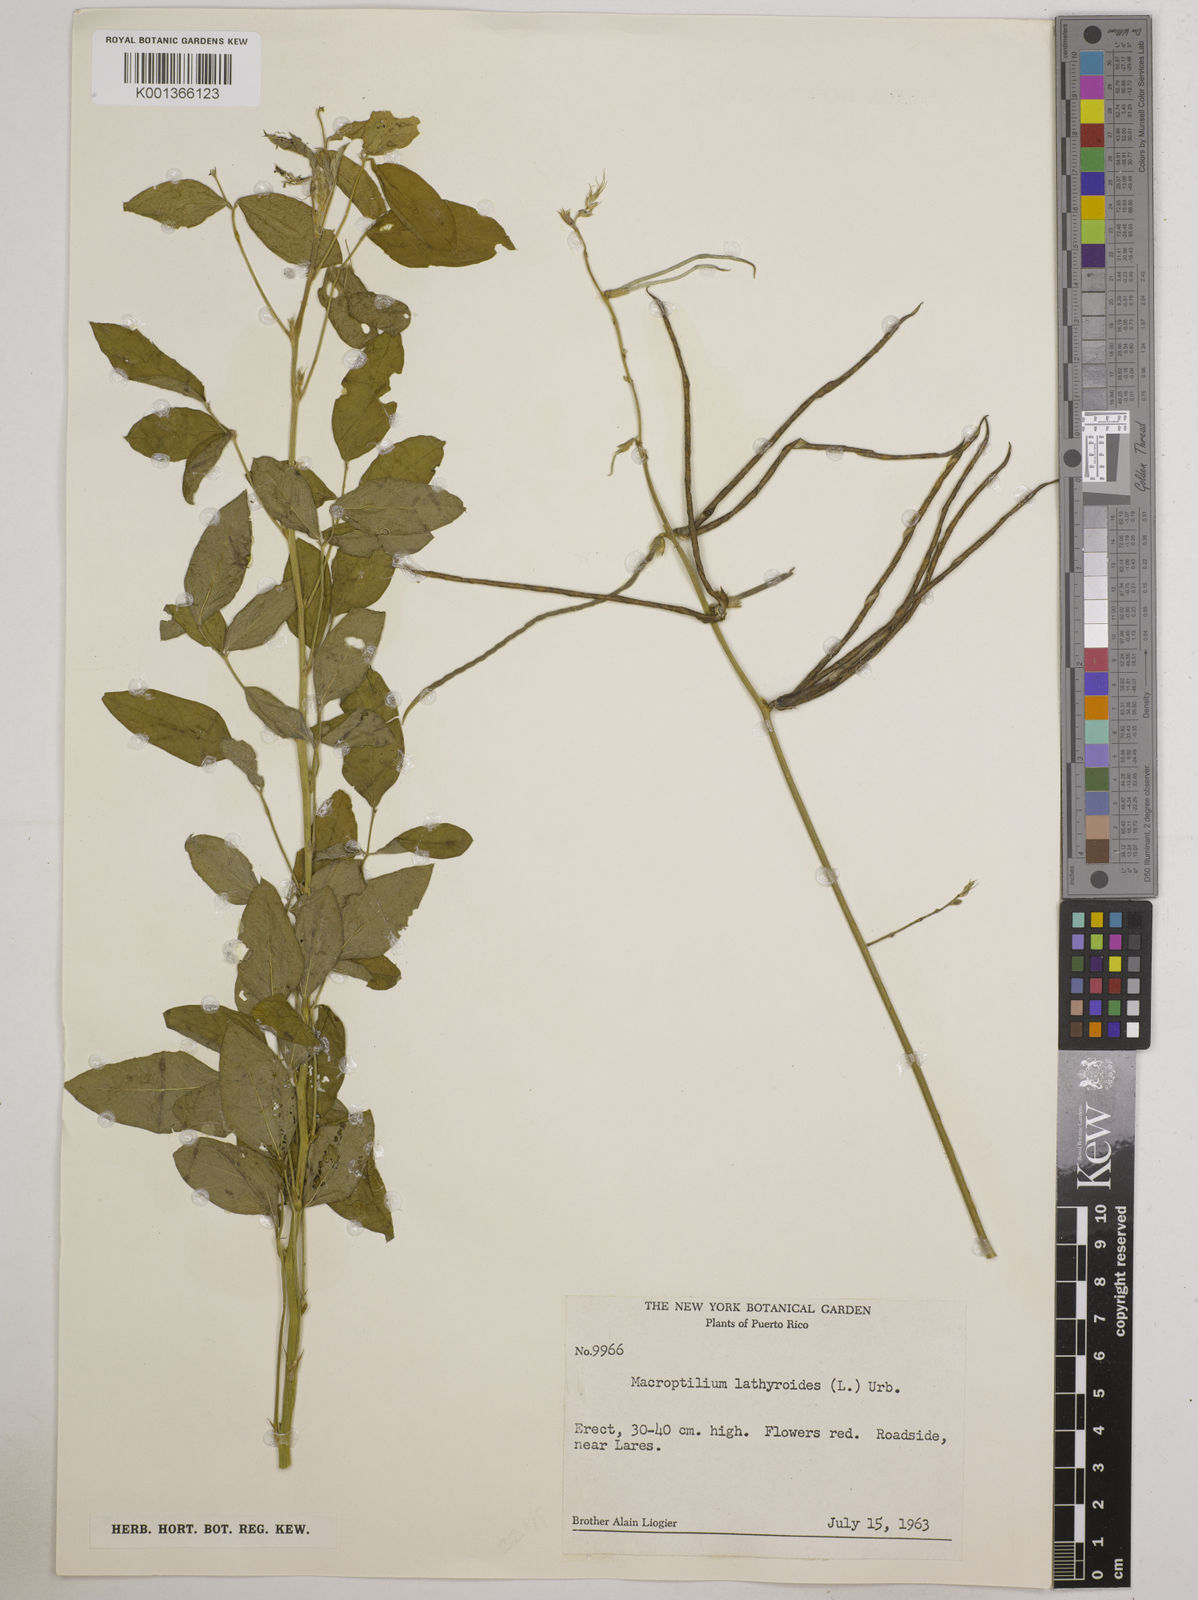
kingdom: Plantae
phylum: Tracheophyta
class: Magnoliopsida
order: Fabales
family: Fabaceae
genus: Macroptilium
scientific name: Macroptilium lathyroides
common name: Wild bushbean
